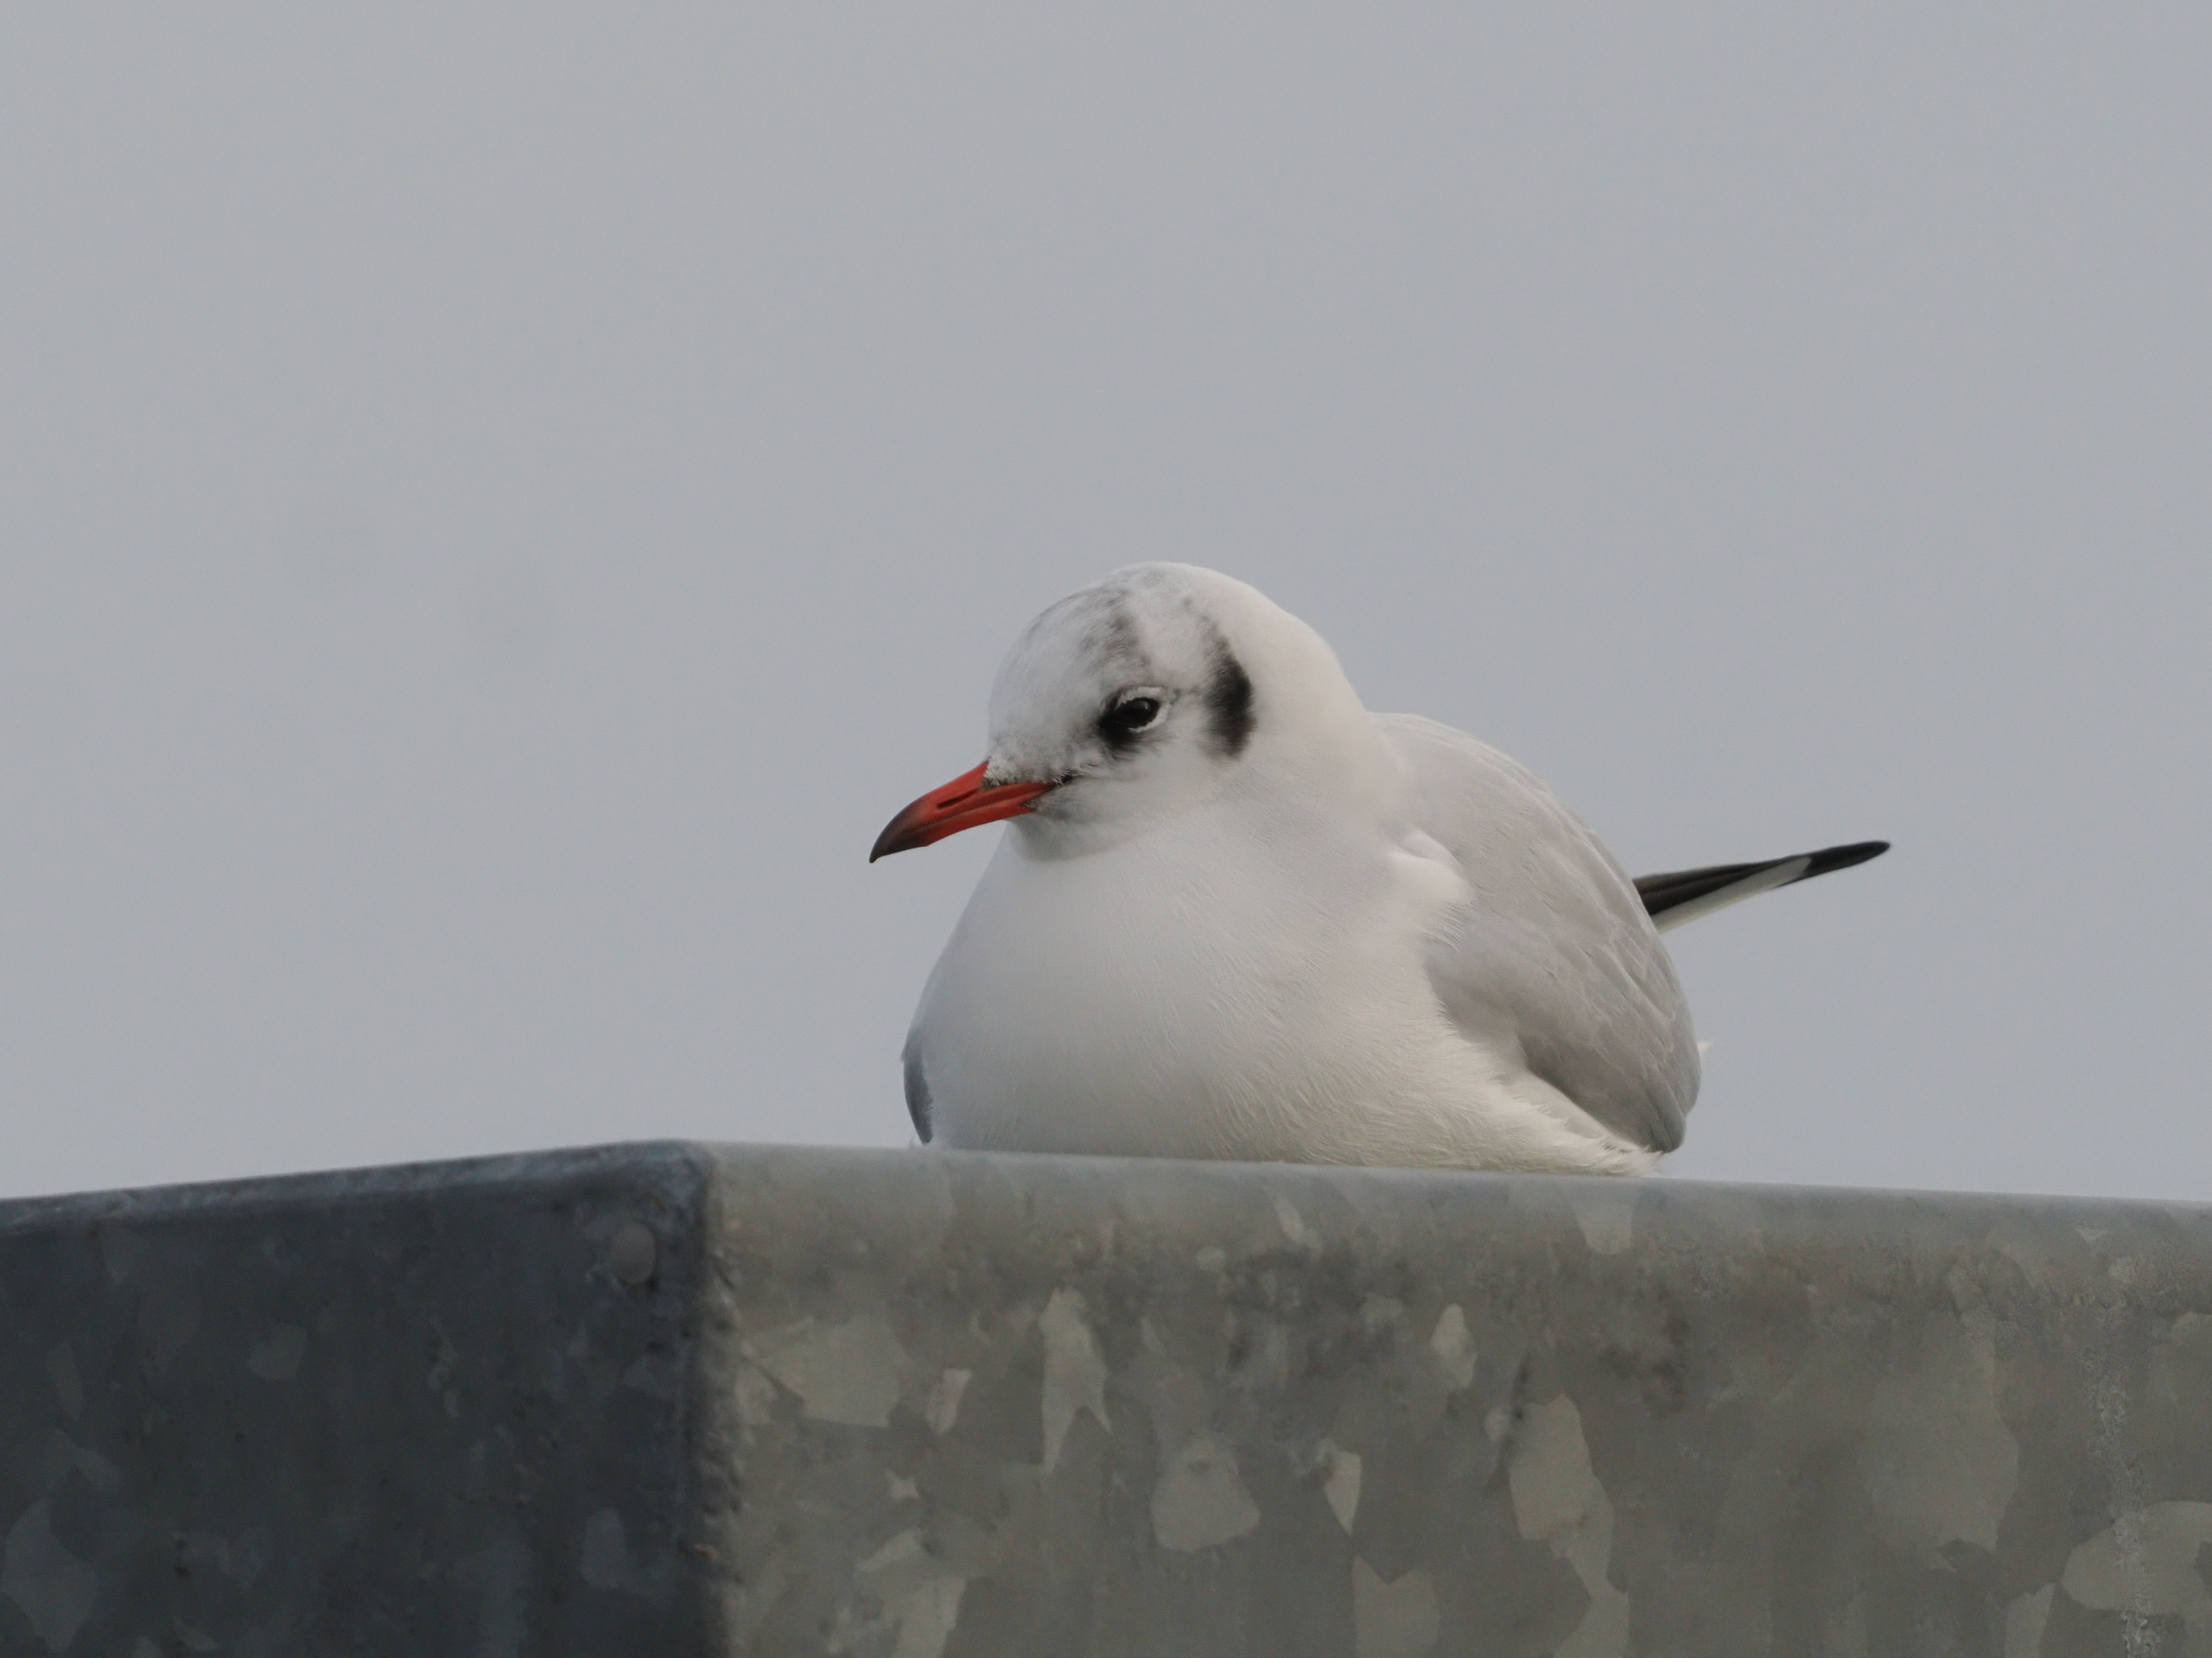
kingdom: Animalia
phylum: Chordata
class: Aves
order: Charadriiformes
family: Laridae
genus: Chroicocephalus
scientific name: Chroicocephalus ridibundus
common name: Hættemåge
